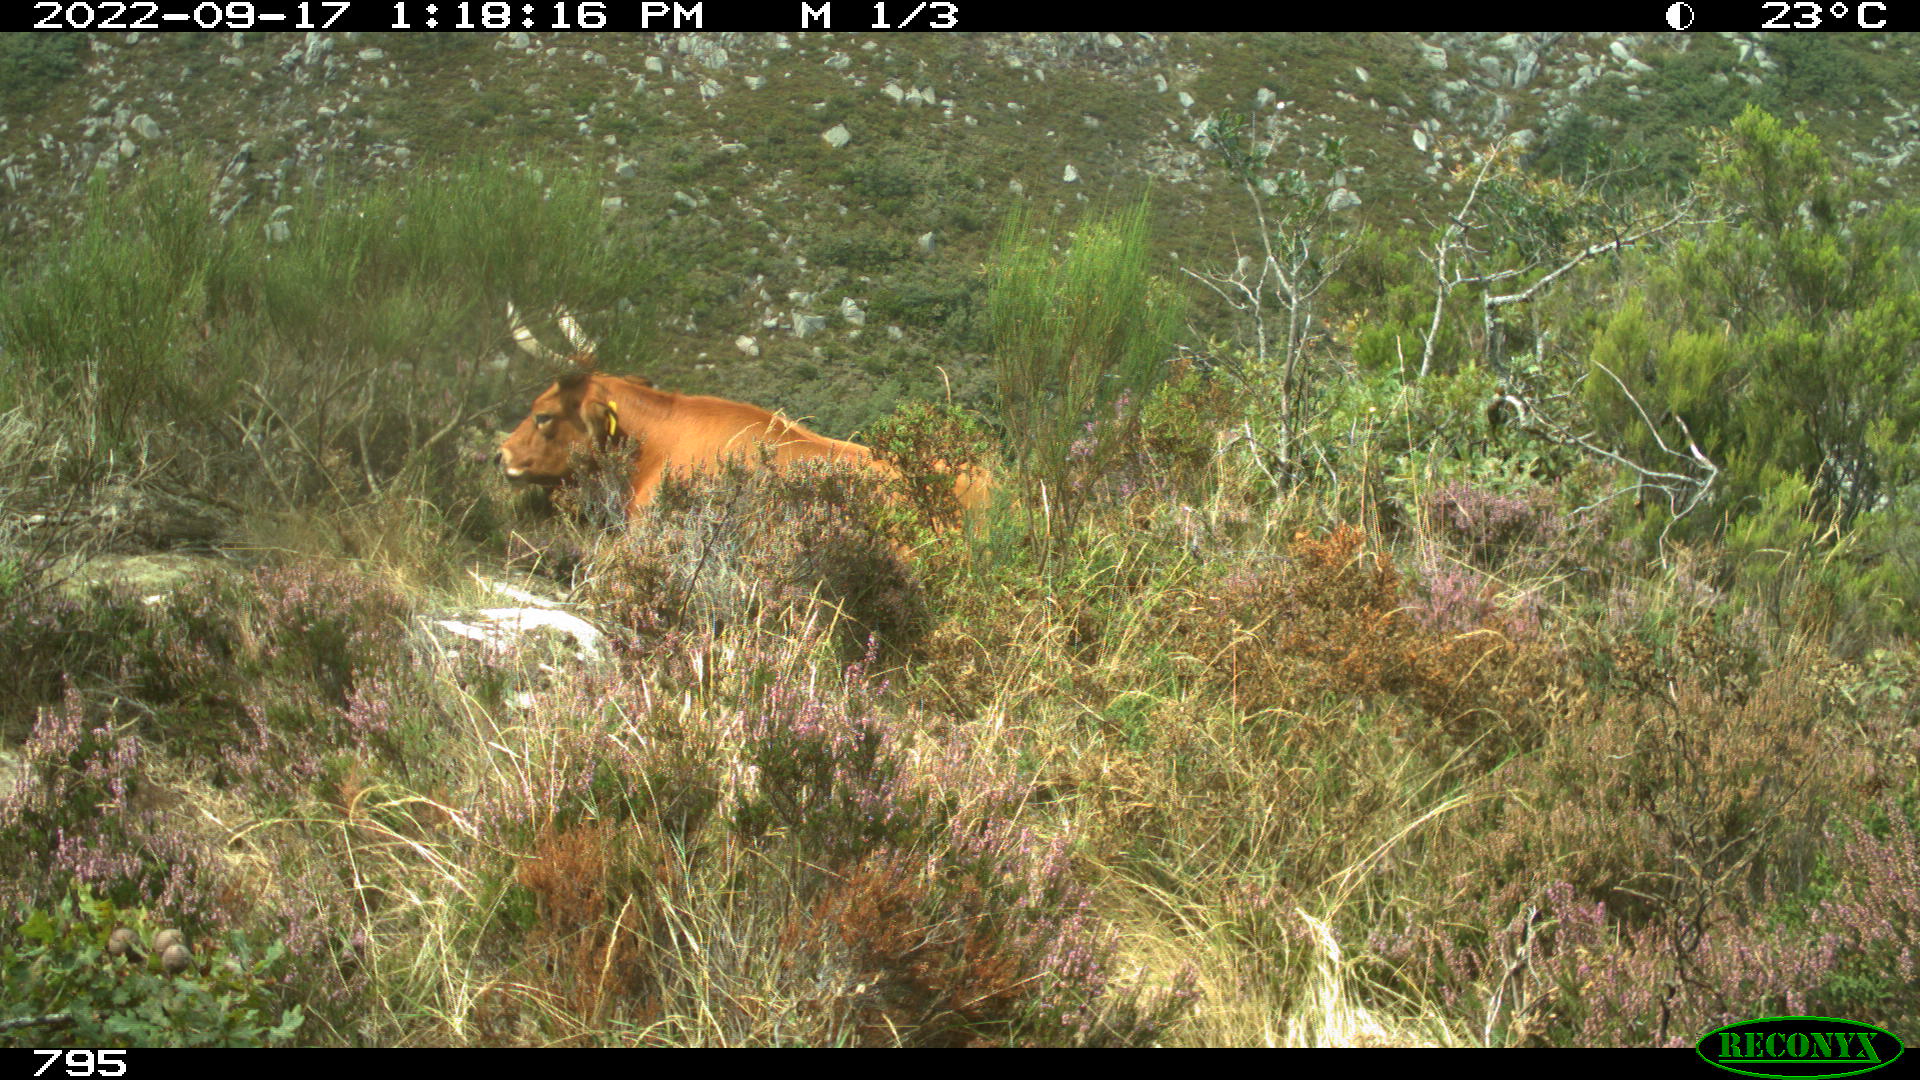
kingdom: Animalia
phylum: Chordata
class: Mammalia
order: Artiodactyla
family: Bovidae
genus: Bos
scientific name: Bos taurus
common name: Domesticated cattle
